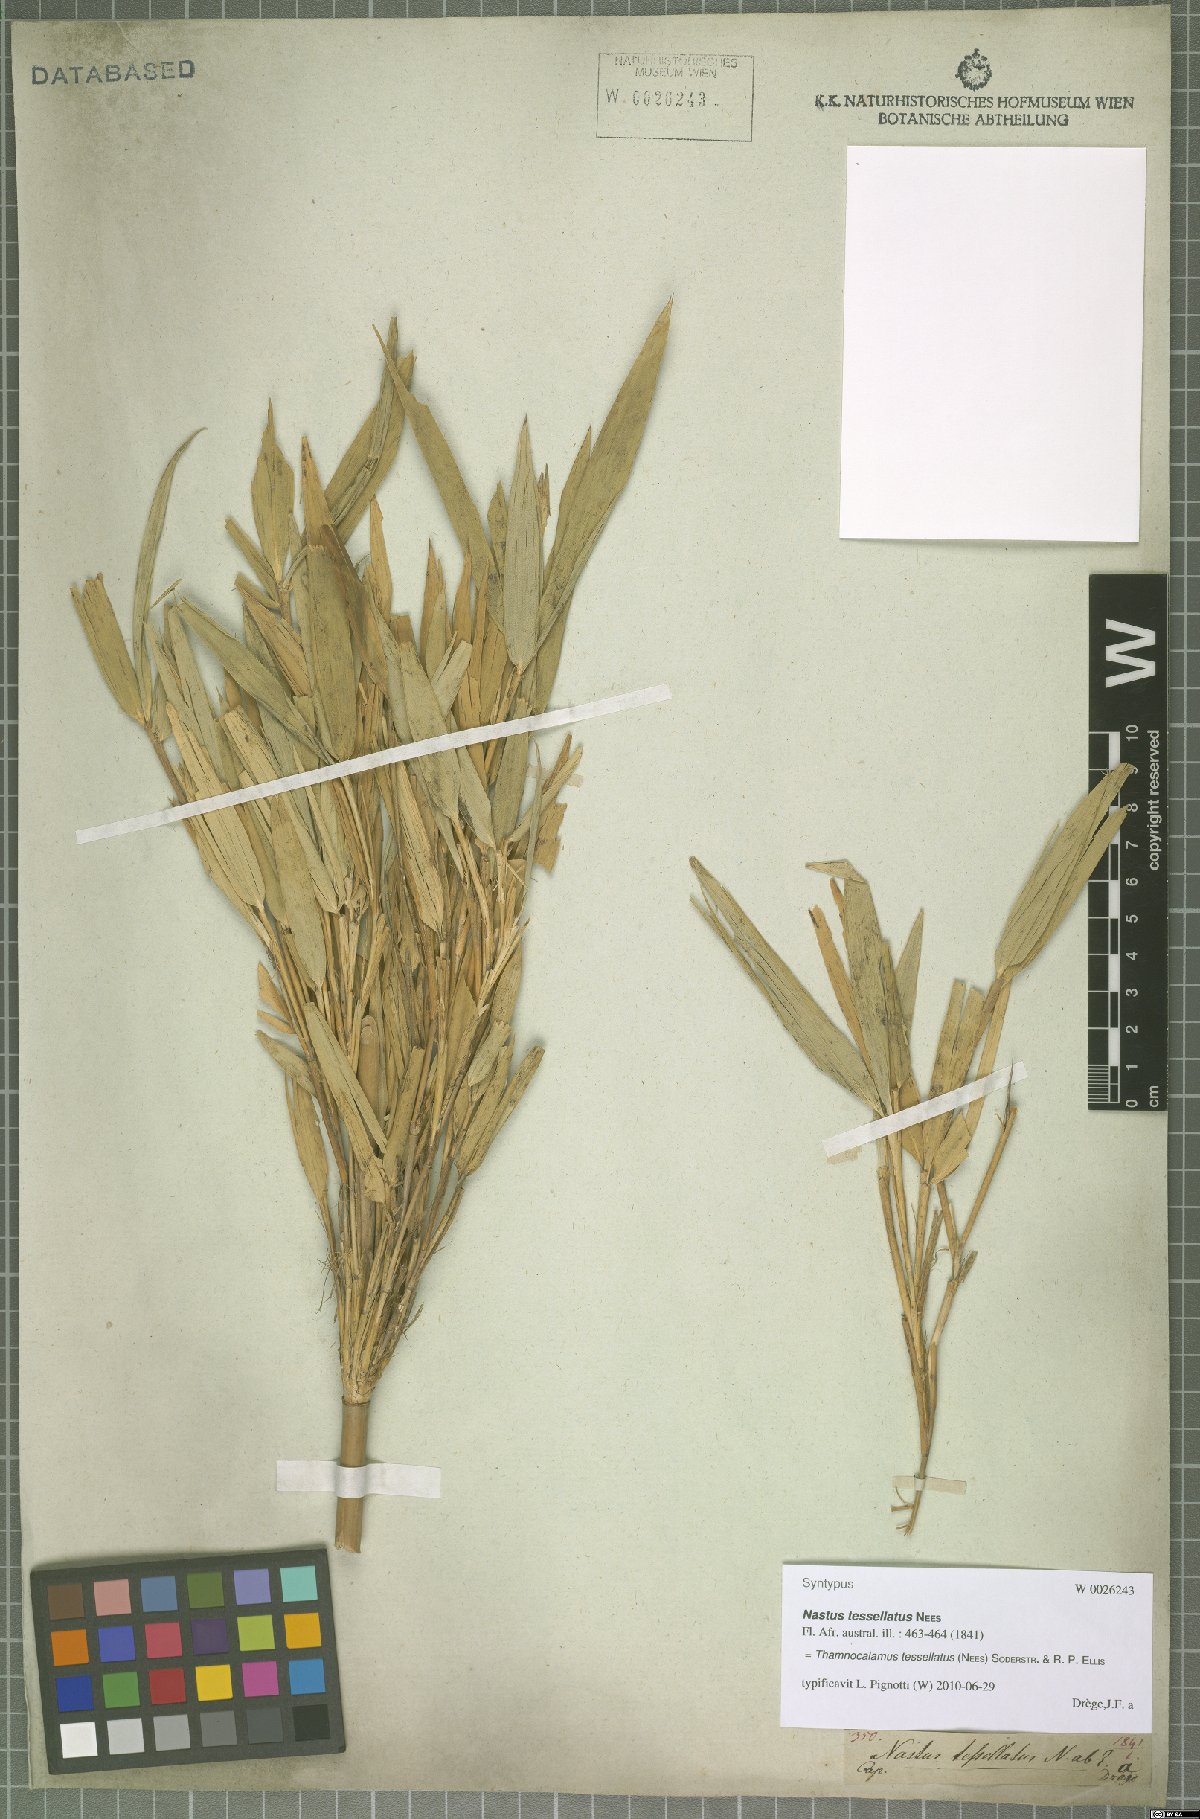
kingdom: Plantae
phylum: Tracheophyta
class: Liliopsida
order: Poales
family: Poaceae
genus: Bergbambos
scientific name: Bergbambos tessellata
